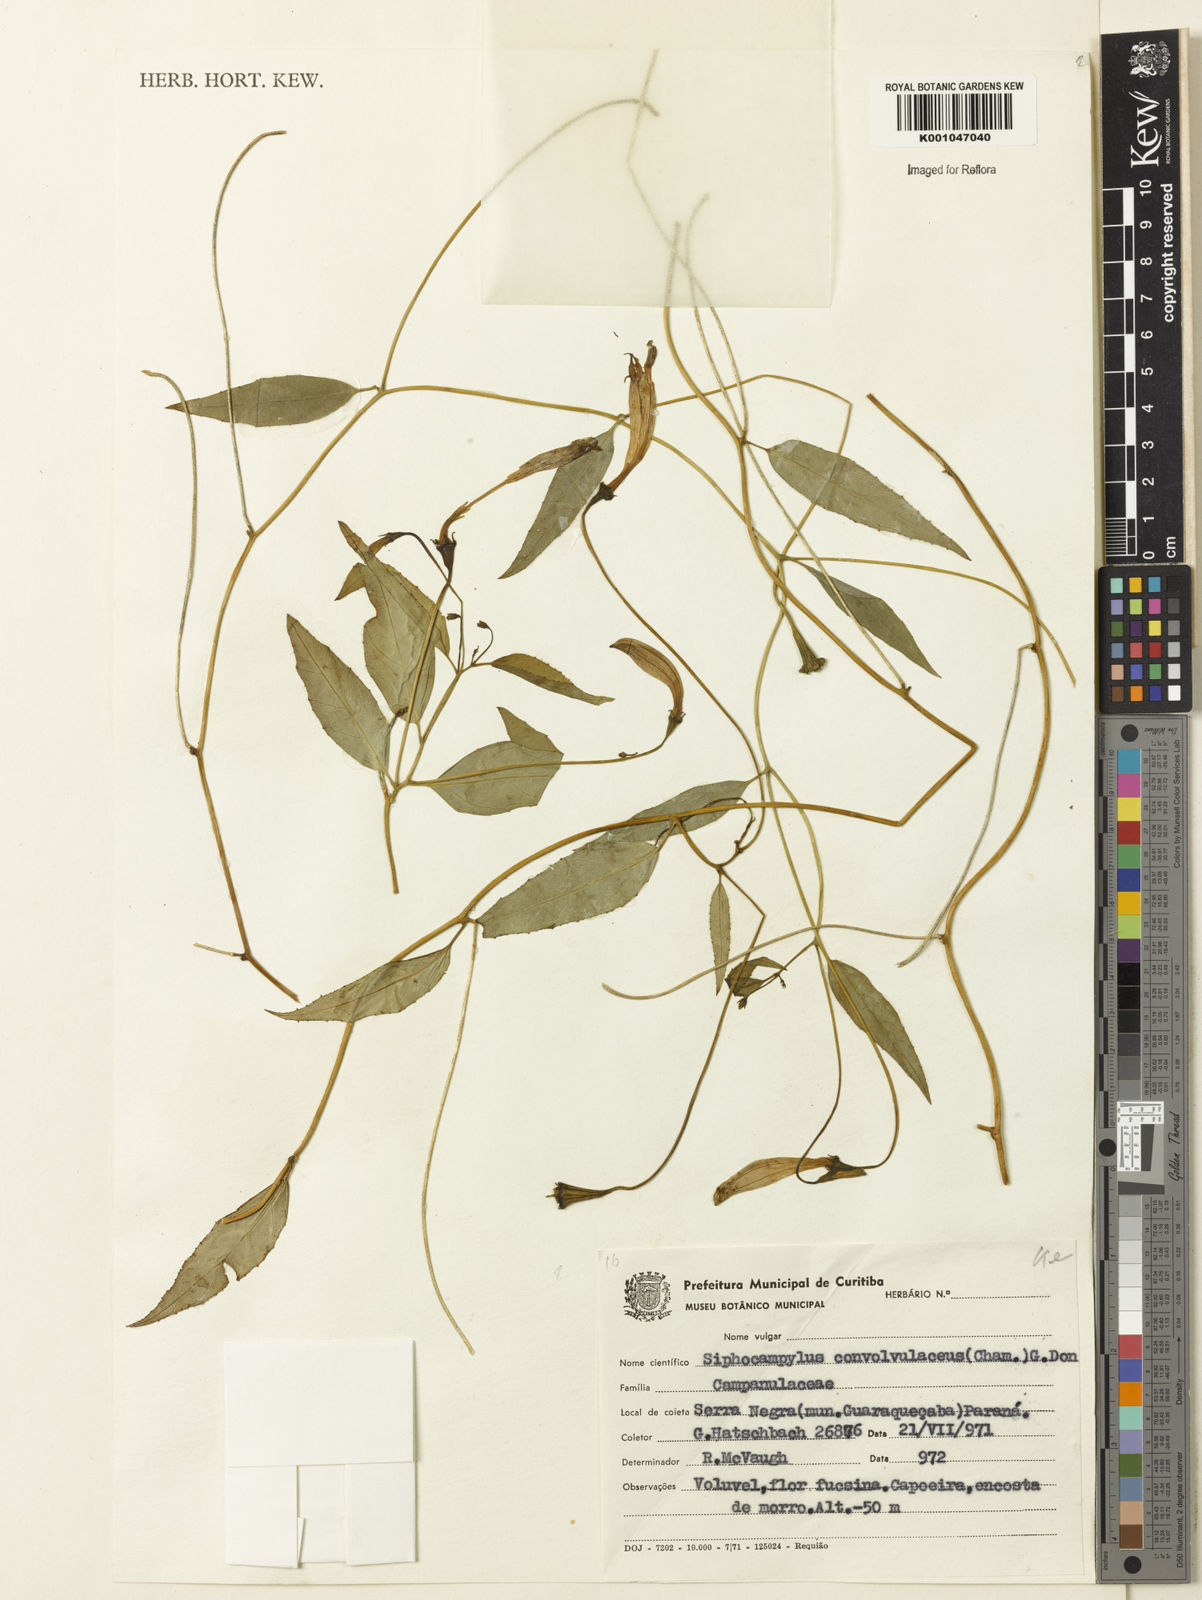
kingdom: Plantae
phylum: Tracheophyta
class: Magnoliopsida
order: Asterales
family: Campanulaceae
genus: Siphocampylus
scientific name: Siphocampylus convolvulaceus
